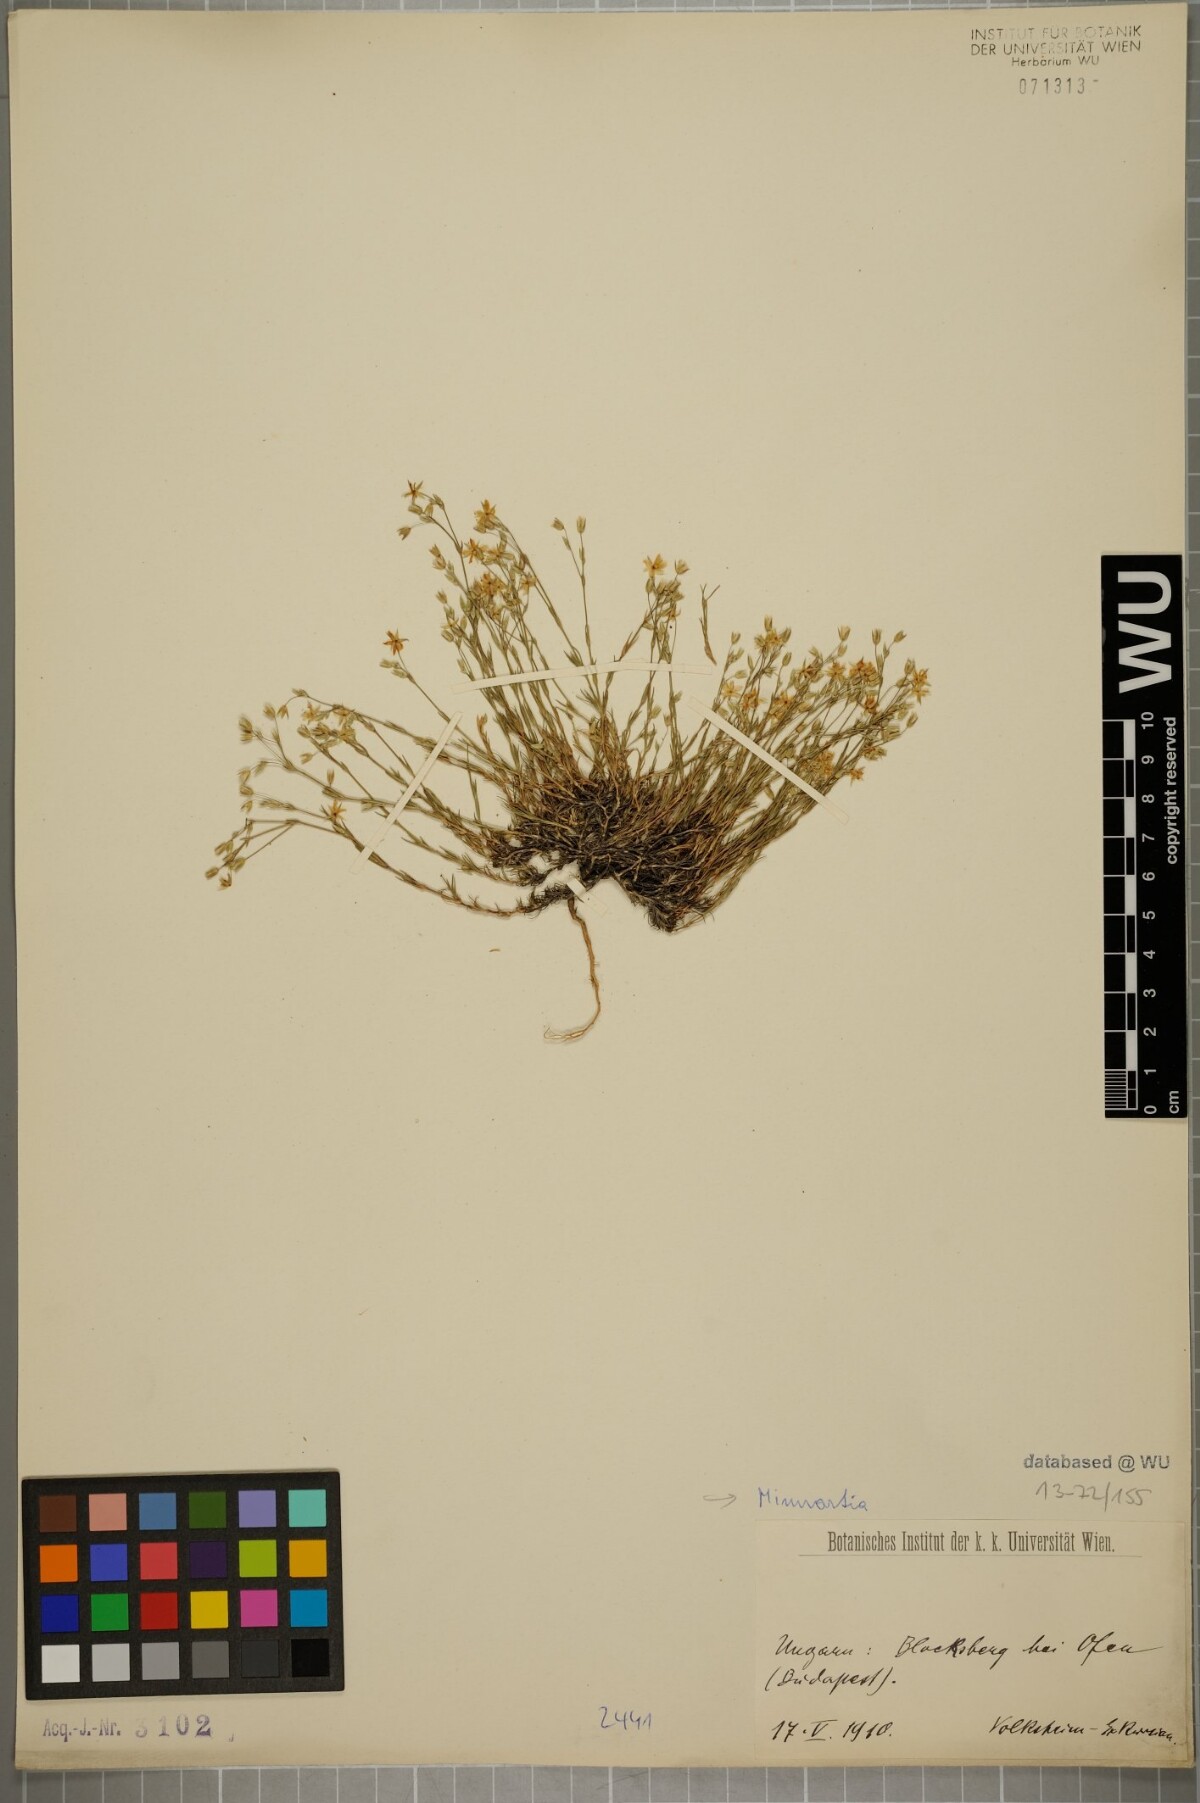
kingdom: Plantae
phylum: Tracheophyta
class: Magnoliopsida
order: Caryophyllales
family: Caryophyllaceae
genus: Sabulina
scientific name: Sabulina verna
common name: Spring sandwort
